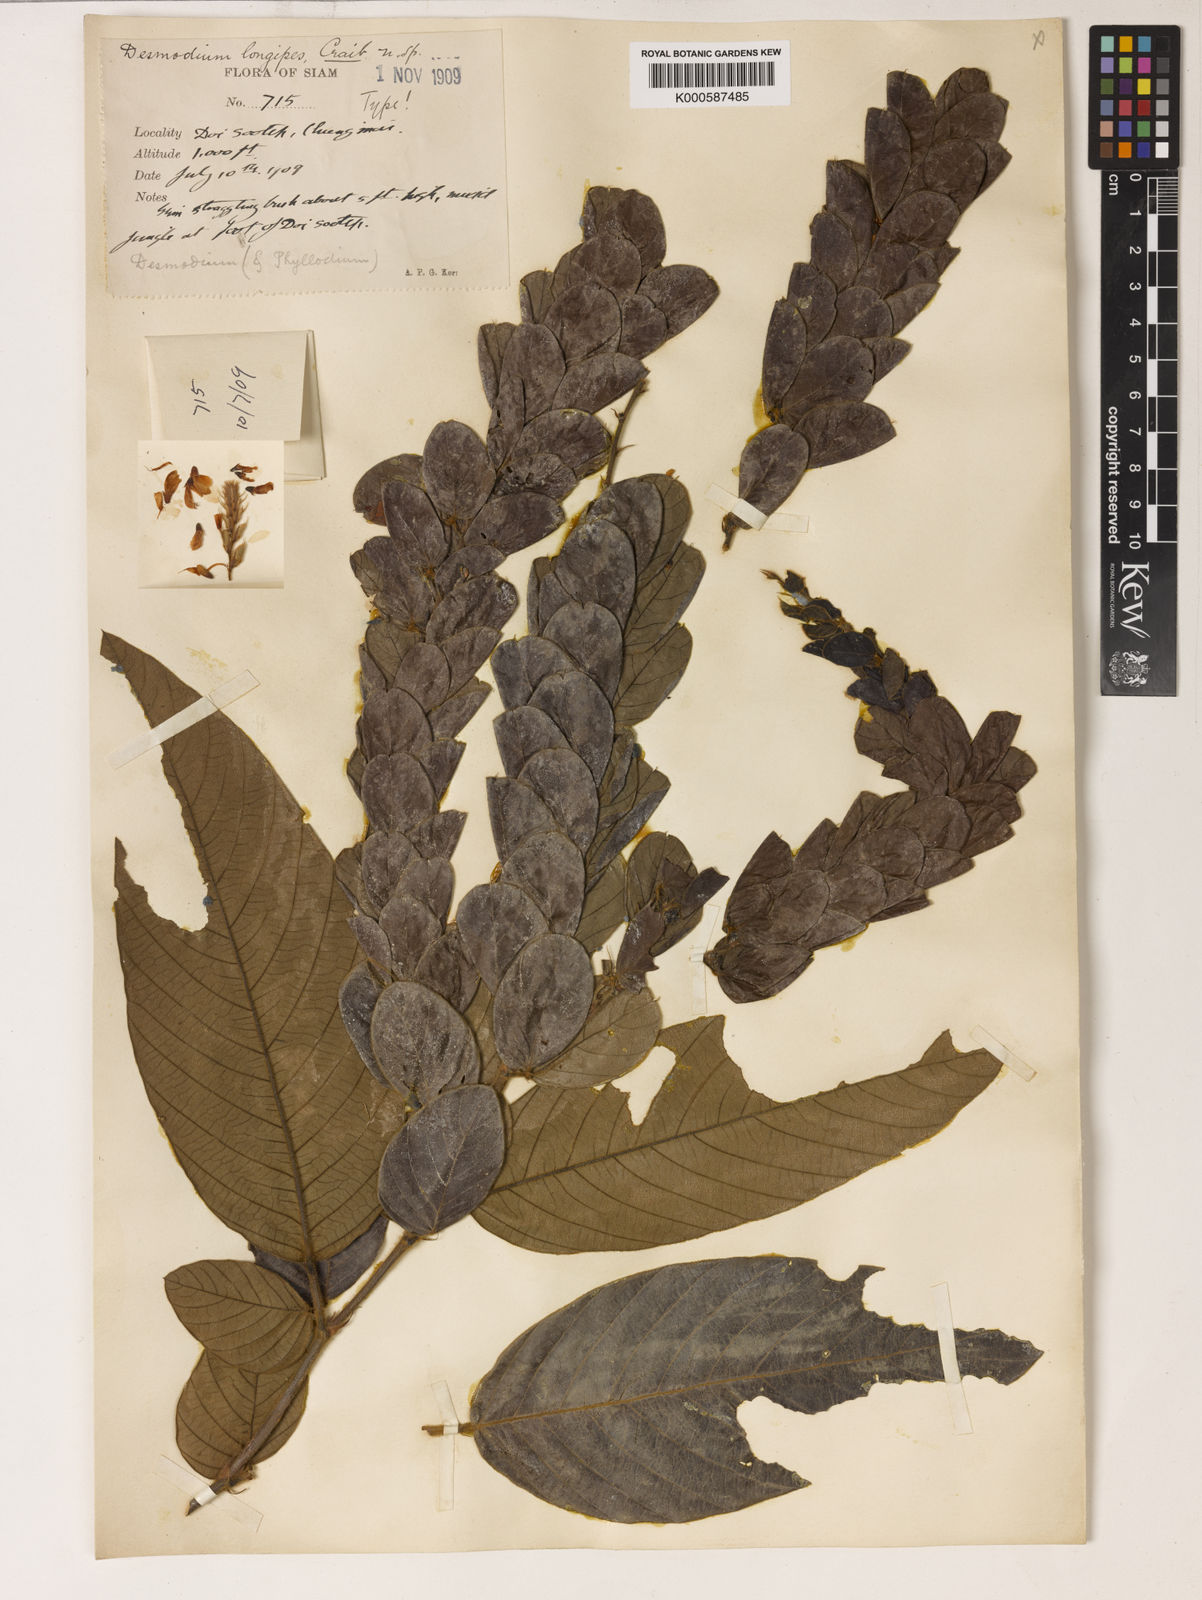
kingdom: Plantae
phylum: Tracheophyta
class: Magnoliopsida
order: Fabales
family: Fabaceae
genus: Phyllodium
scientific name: Phyllodium longipes
